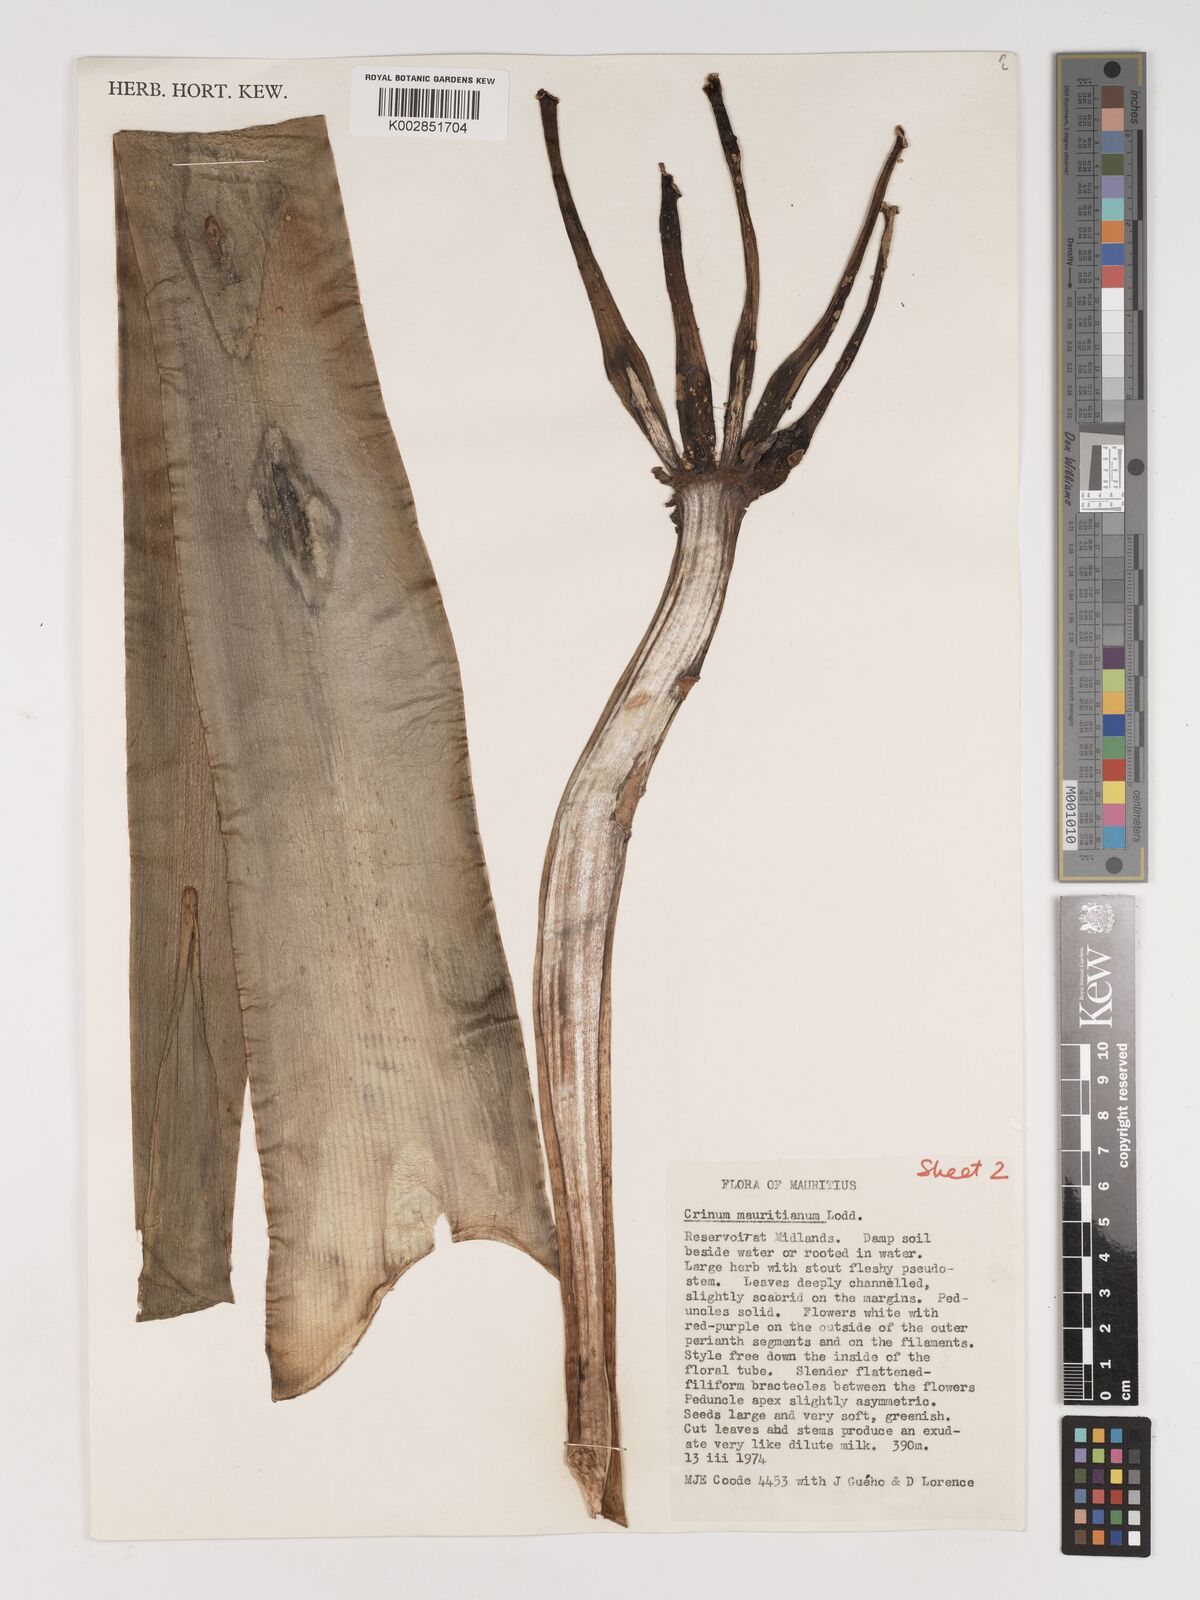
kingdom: Plantae
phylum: Tracheophyta
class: Liliopsida
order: Asparagales
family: Amaryllidaceae
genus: Crinum
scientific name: Crinum mauritianum
